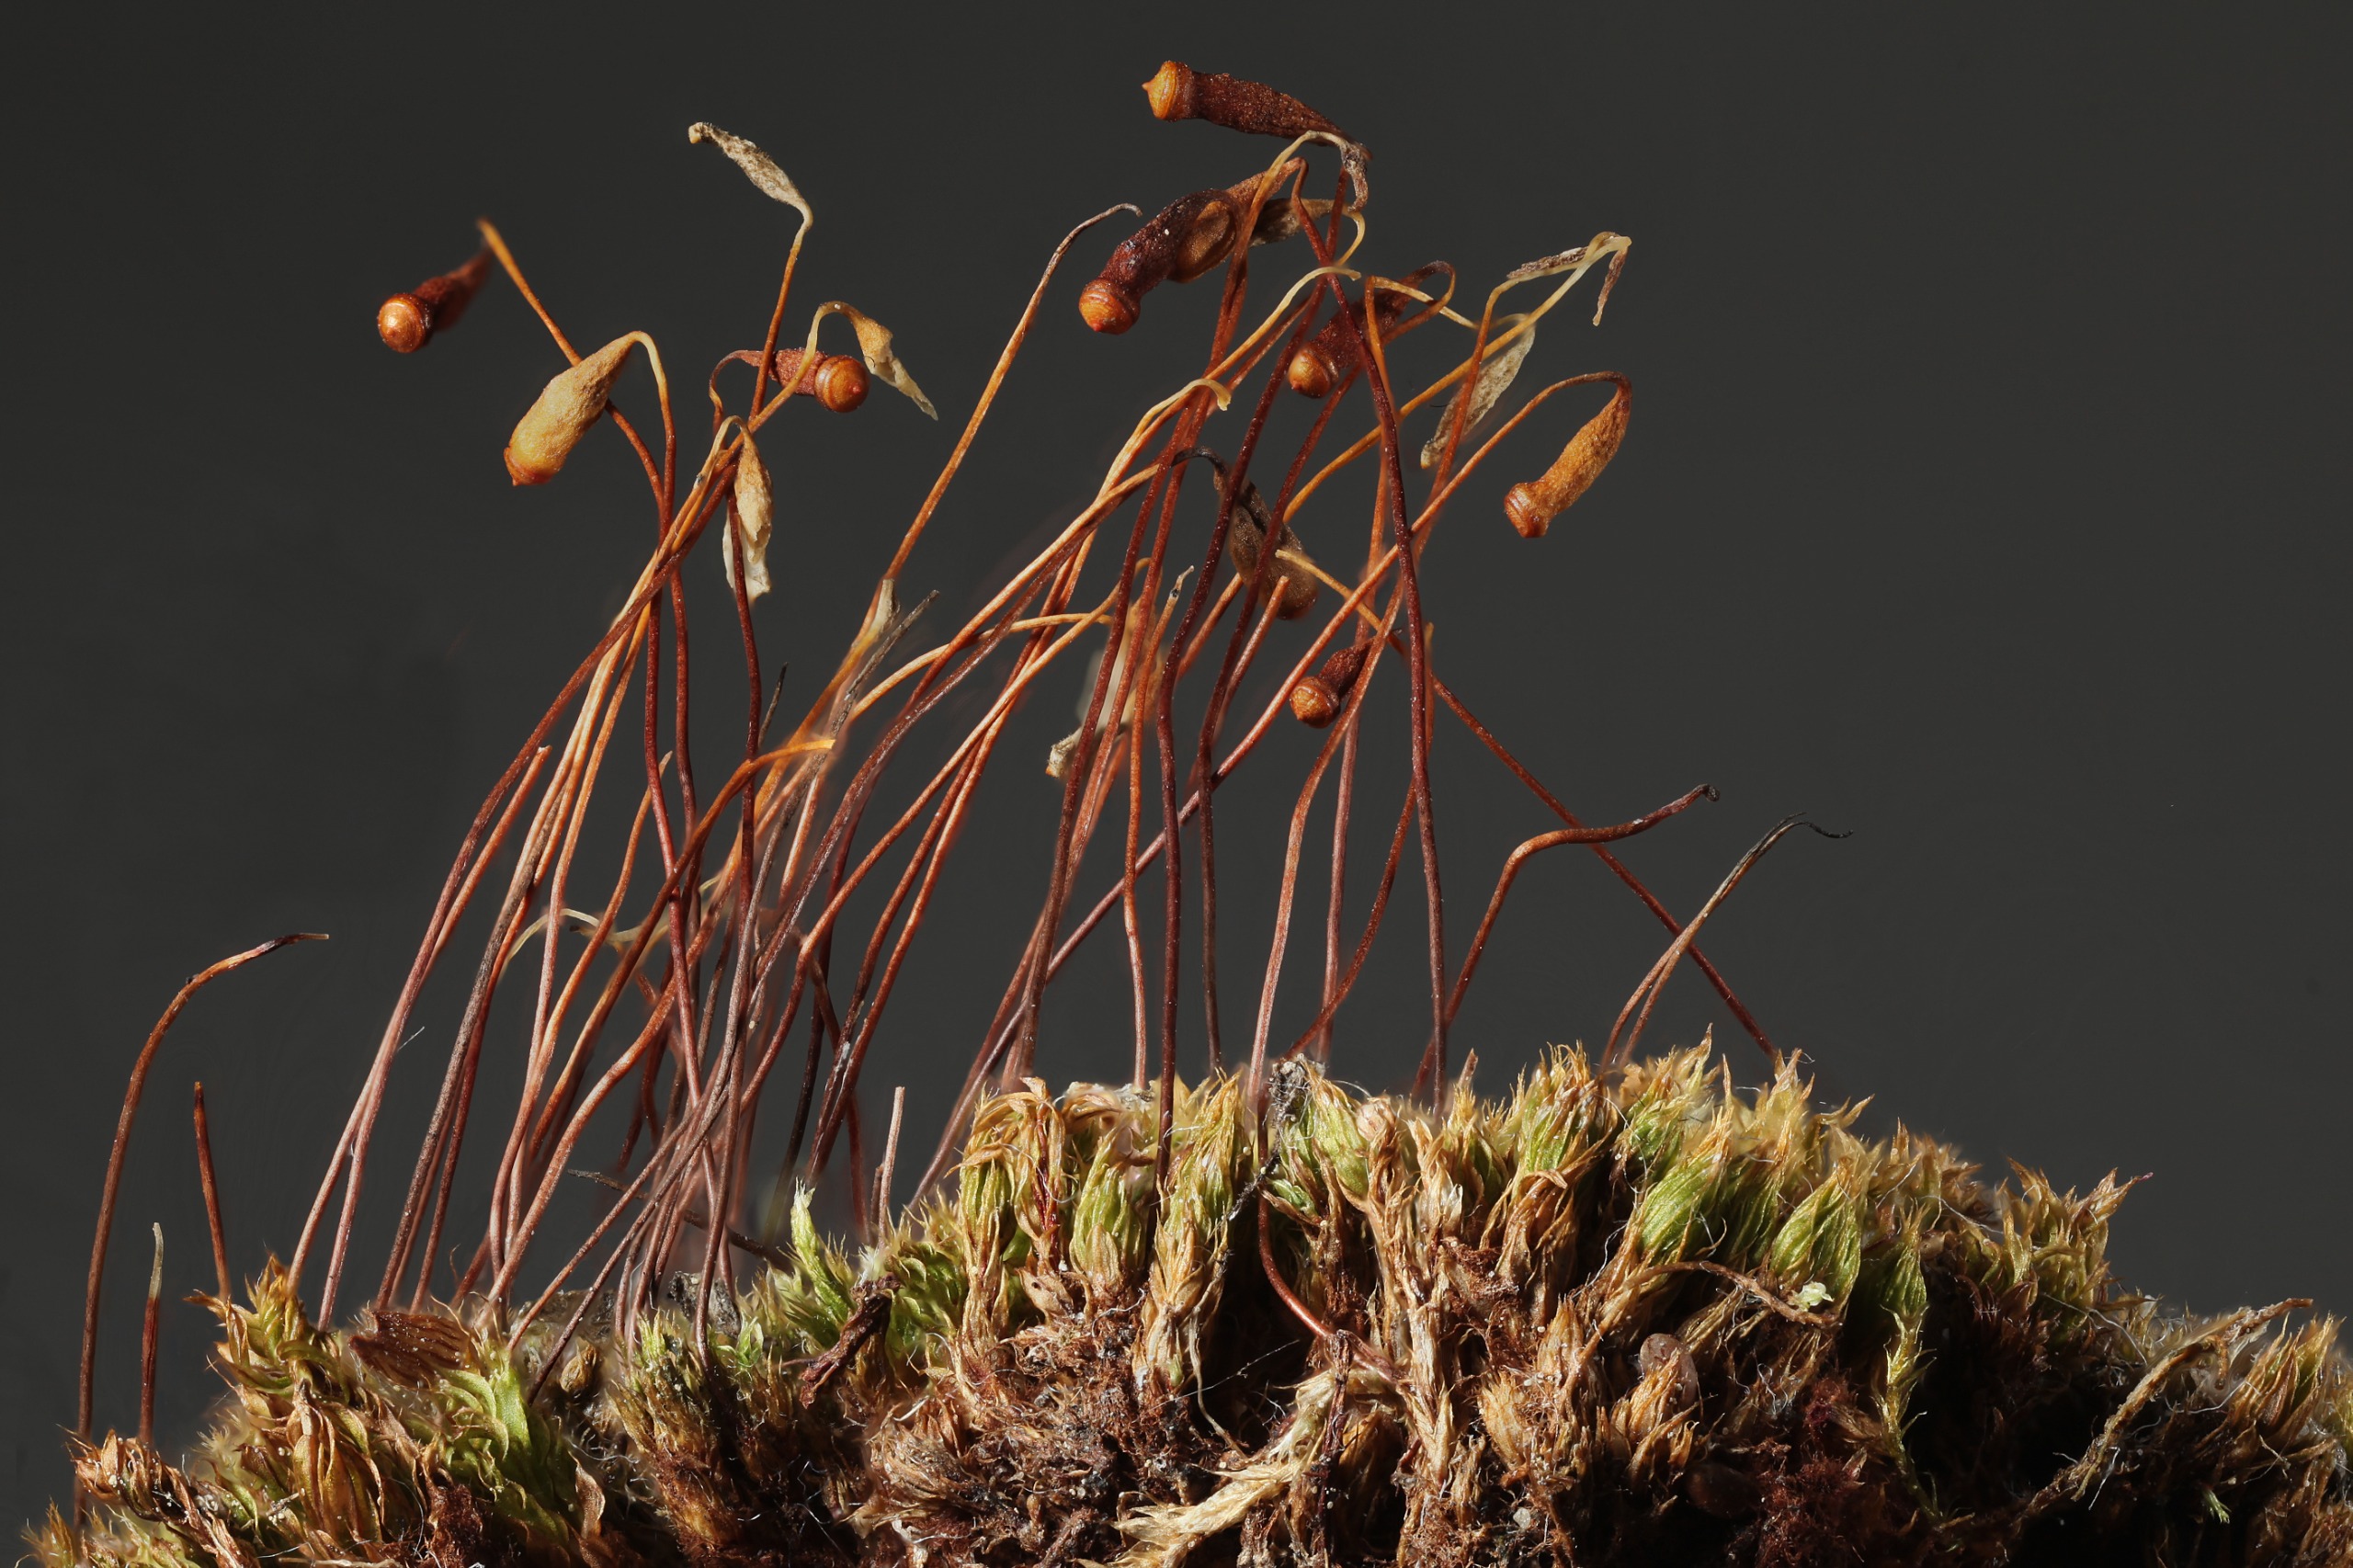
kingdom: Plantae
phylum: Bryophyta
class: Bryopsida
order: Bryales
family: Bryaceae
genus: Ptychostomum
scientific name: Ptychostomum creberrimum
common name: Symmetrisk bryum
